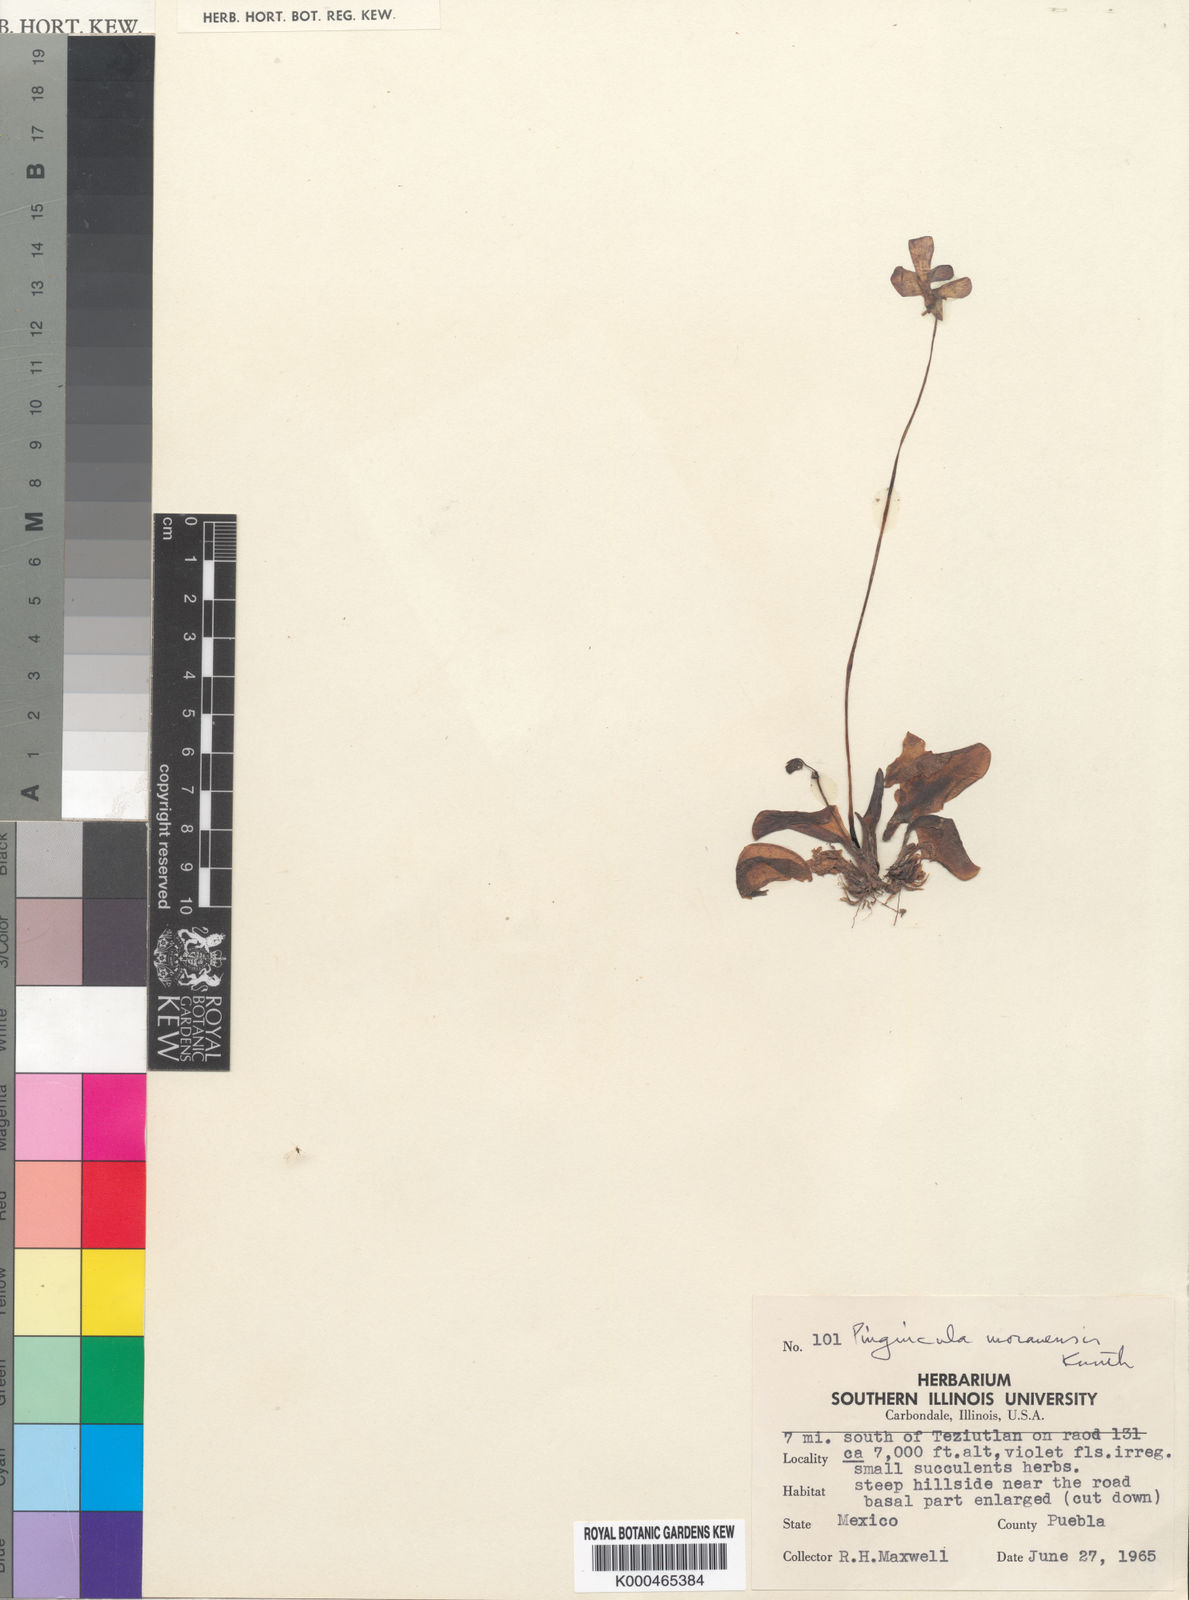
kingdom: Plantae
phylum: Tracheophyta
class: Magnoliopsida
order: Lamiales
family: Lentibulariaceae
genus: Pinguicula
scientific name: Pinguicula moranensis
